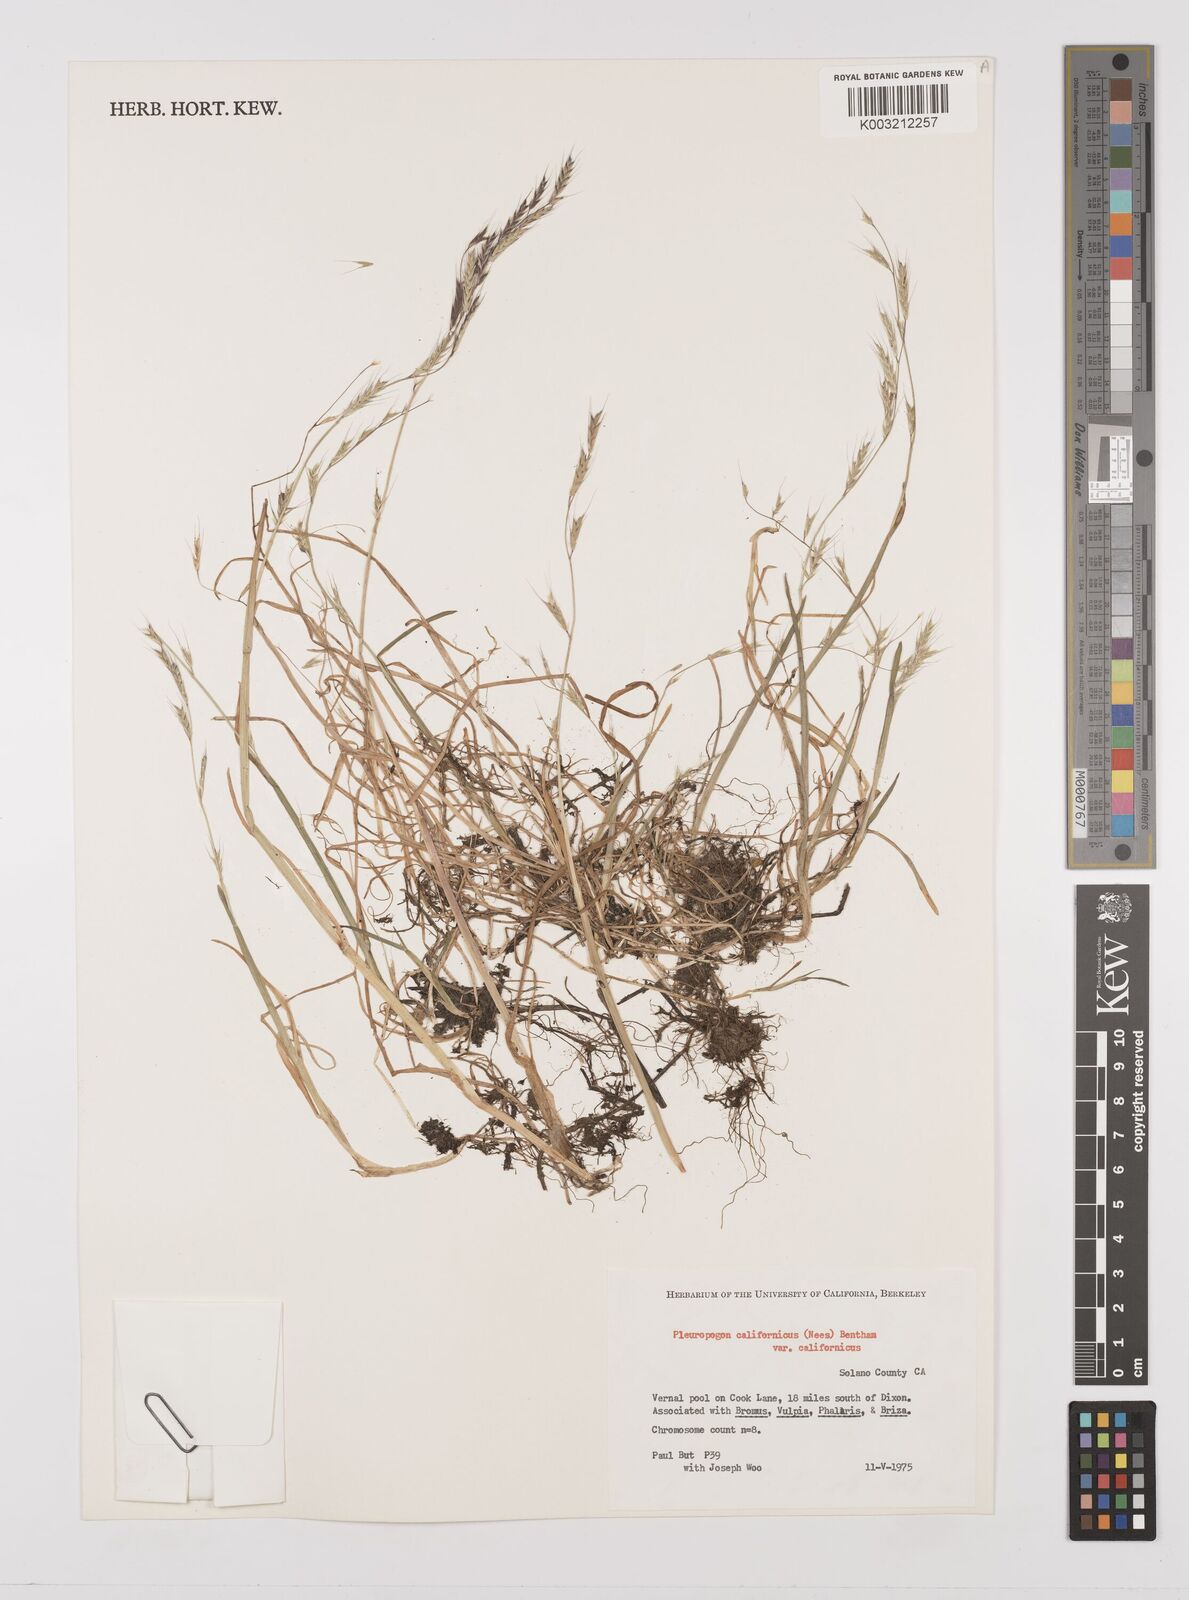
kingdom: Plantae
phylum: Tracheophyta
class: Liliopsida
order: Poales
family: Poaceae
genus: Pleuropogon
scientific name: Pleuropogon californicus
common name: California semaphore grass
